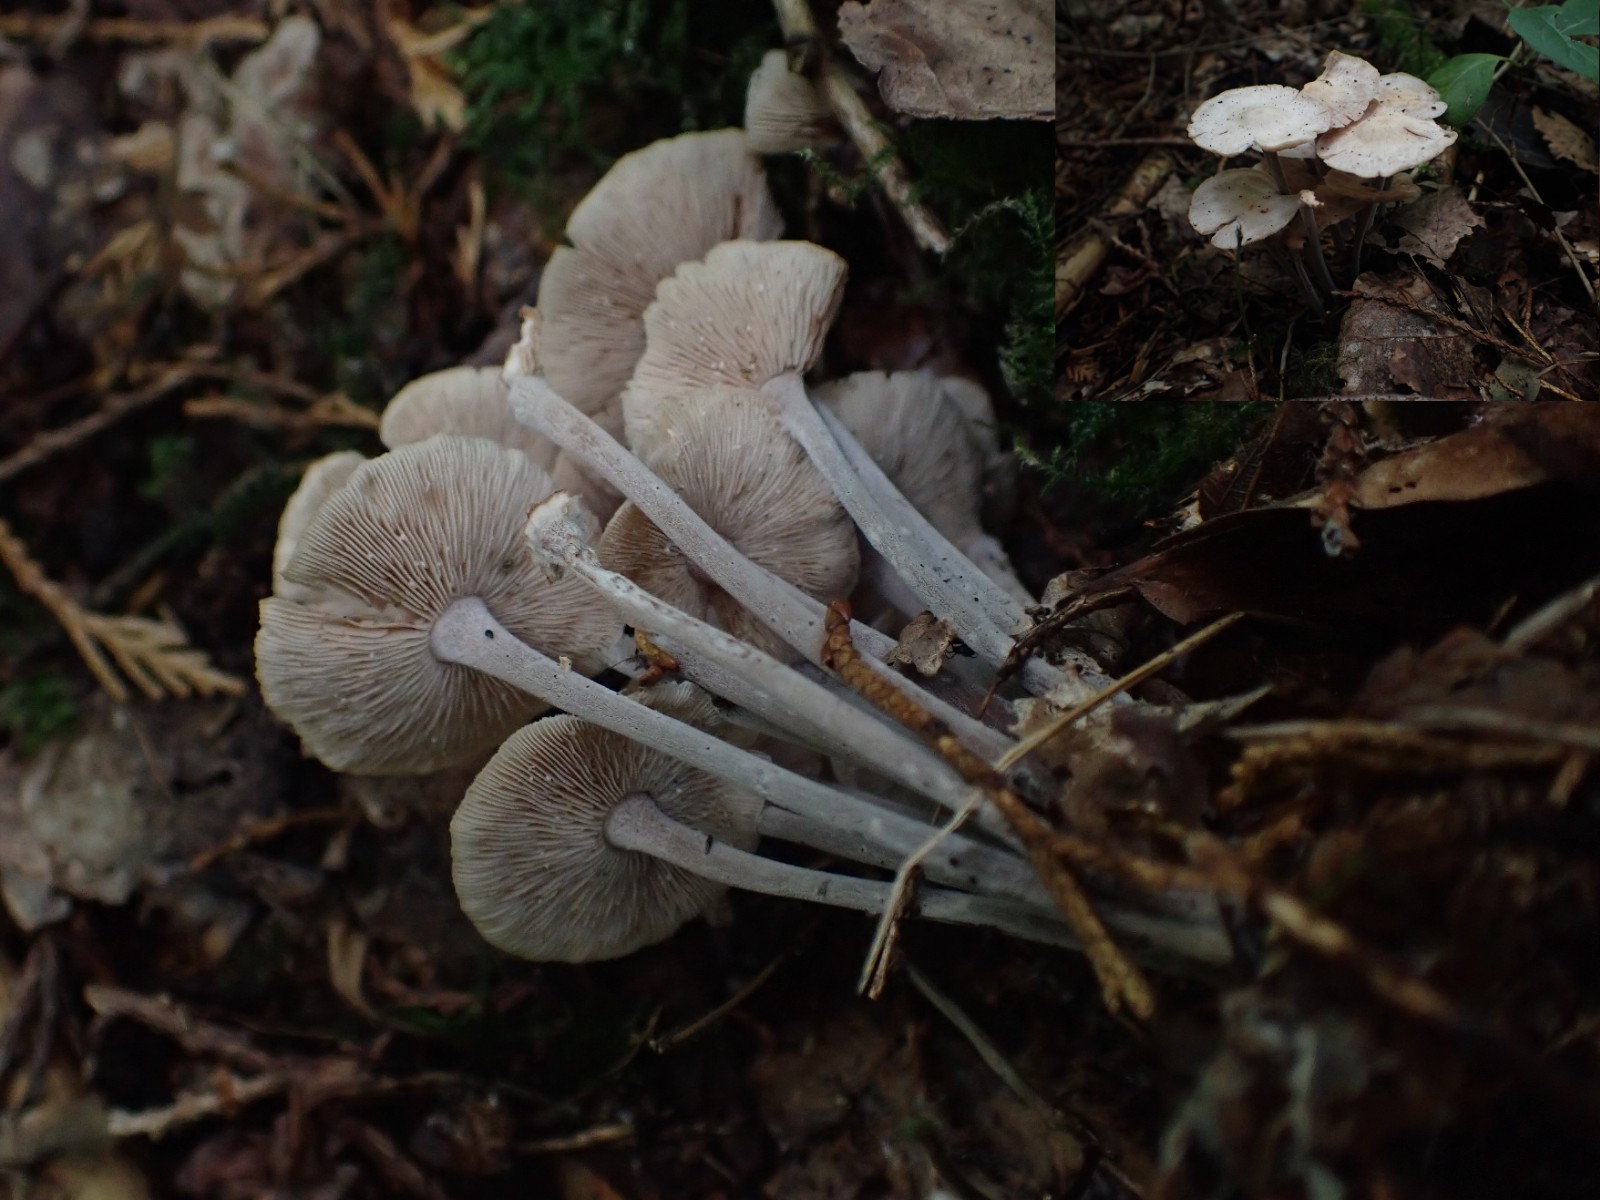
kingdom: Fungi
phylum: Basidiomycota
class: Agaricomycetes
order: Agaricales
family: Omphalotaceae
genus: Collybiopsis
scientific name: Collybiopsis confluens
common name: knippe-fladhat
